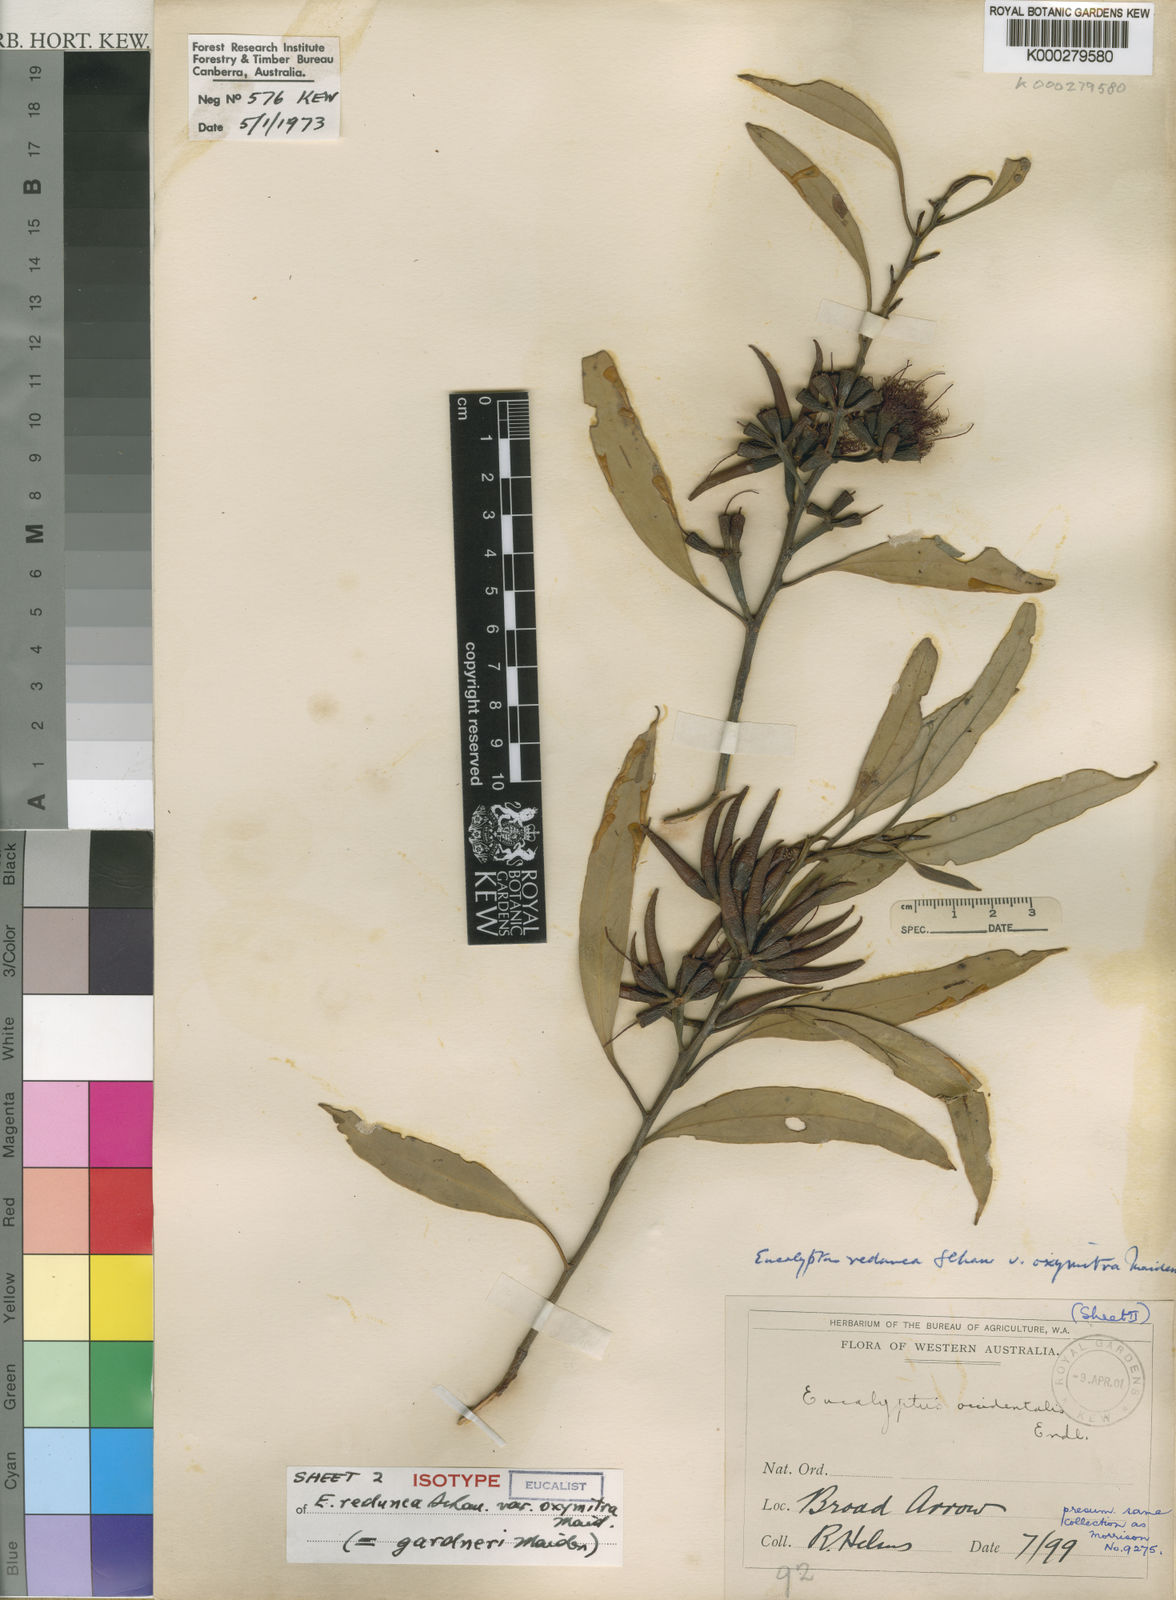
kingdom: Plantae
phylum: Tracheophyta
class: Magnoliopsida
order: Myrtales
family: Myrtaceae
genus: Eucalyptus
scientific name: Eucalyptus gardneri
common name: Blue mallet
